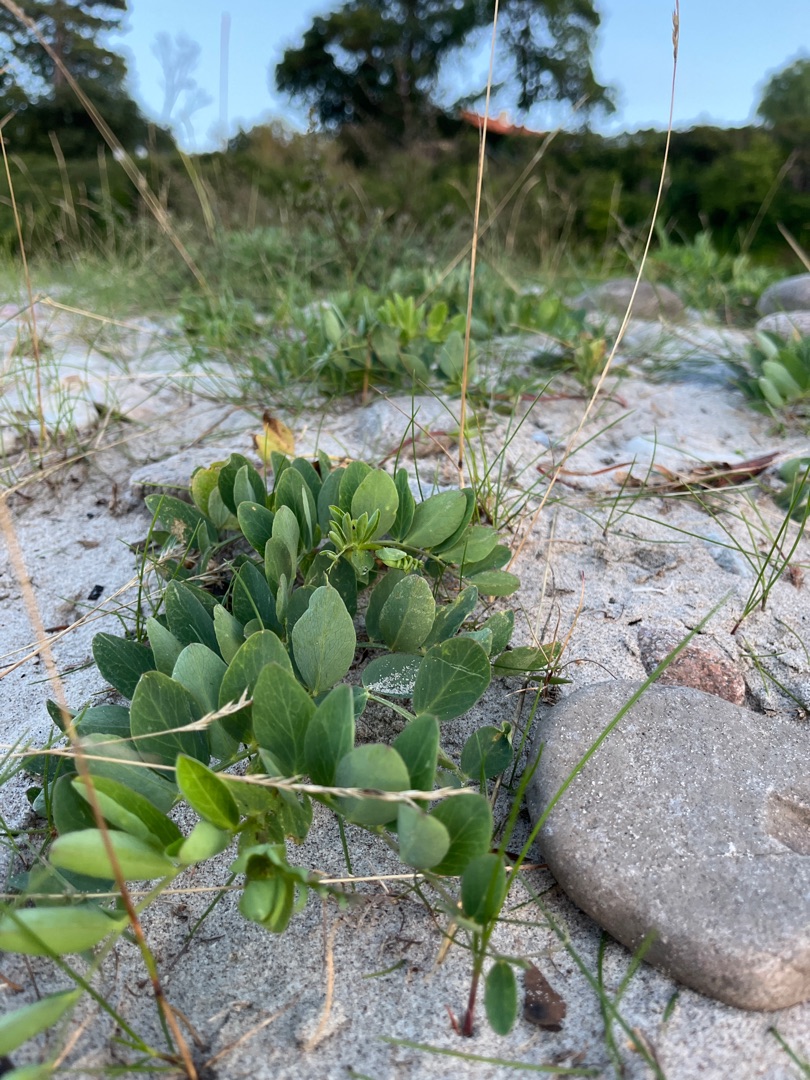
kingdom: Plantae
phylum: Tracheophyta
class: Magnoliopsida
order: Fabales
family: Fabaceae
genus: Lathyrus
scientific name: Lathyrus japonicus
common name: Strand-fladbælg
